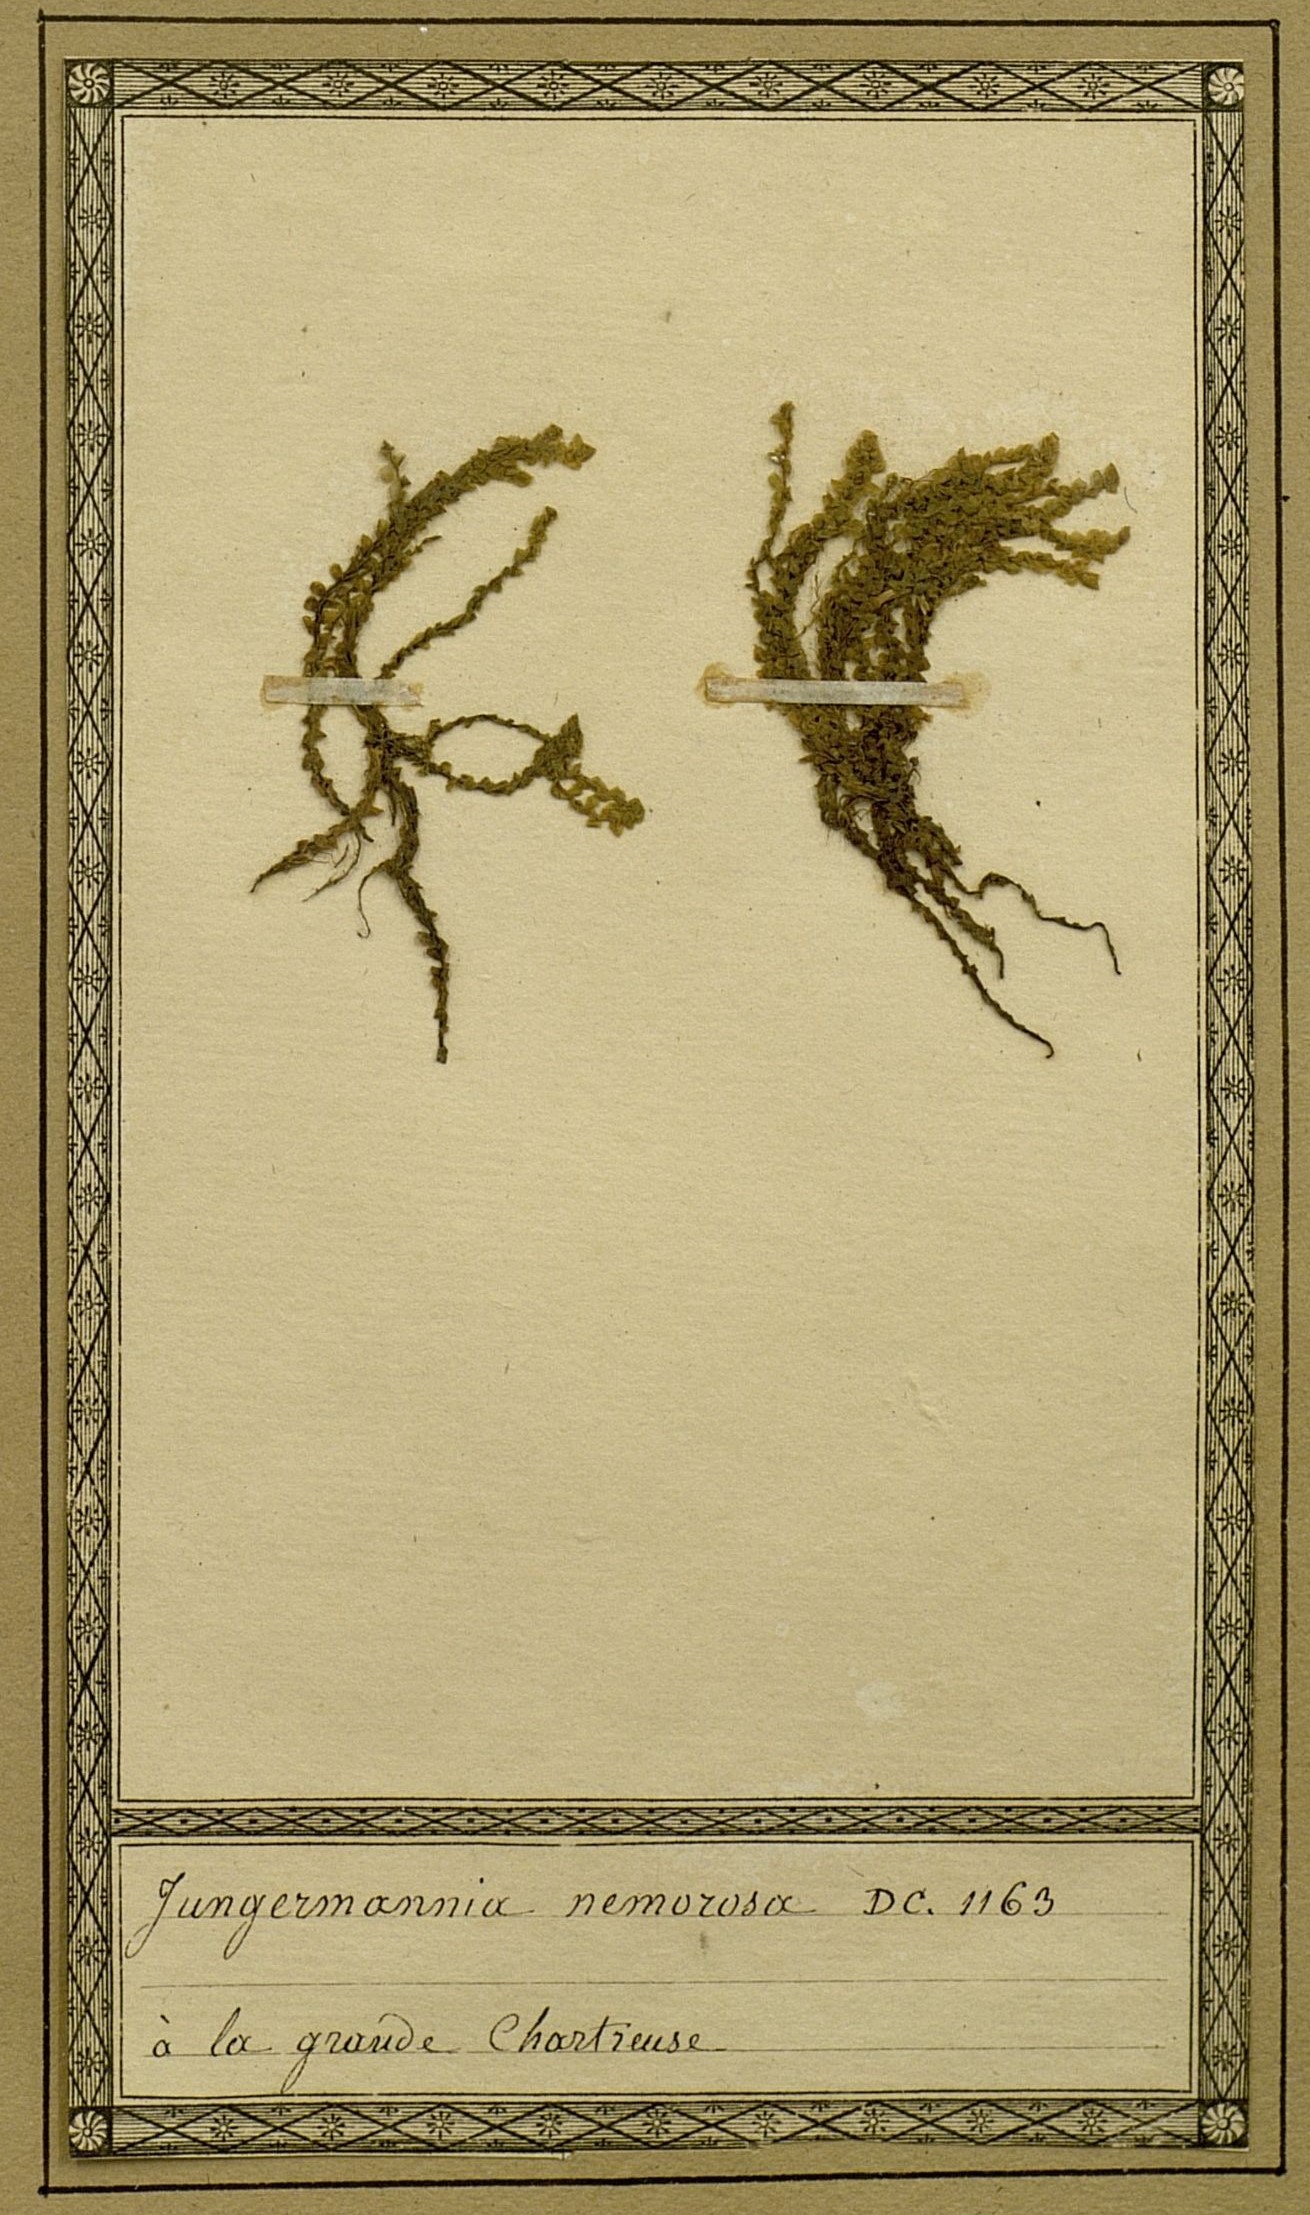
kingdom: Plantae
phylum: Marchantiophyta
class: Jungermanniopsida
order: Jungermanniales
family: Scapaniaceae
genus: Scapania
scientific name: Scapania nemorea
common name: Grove earwort
